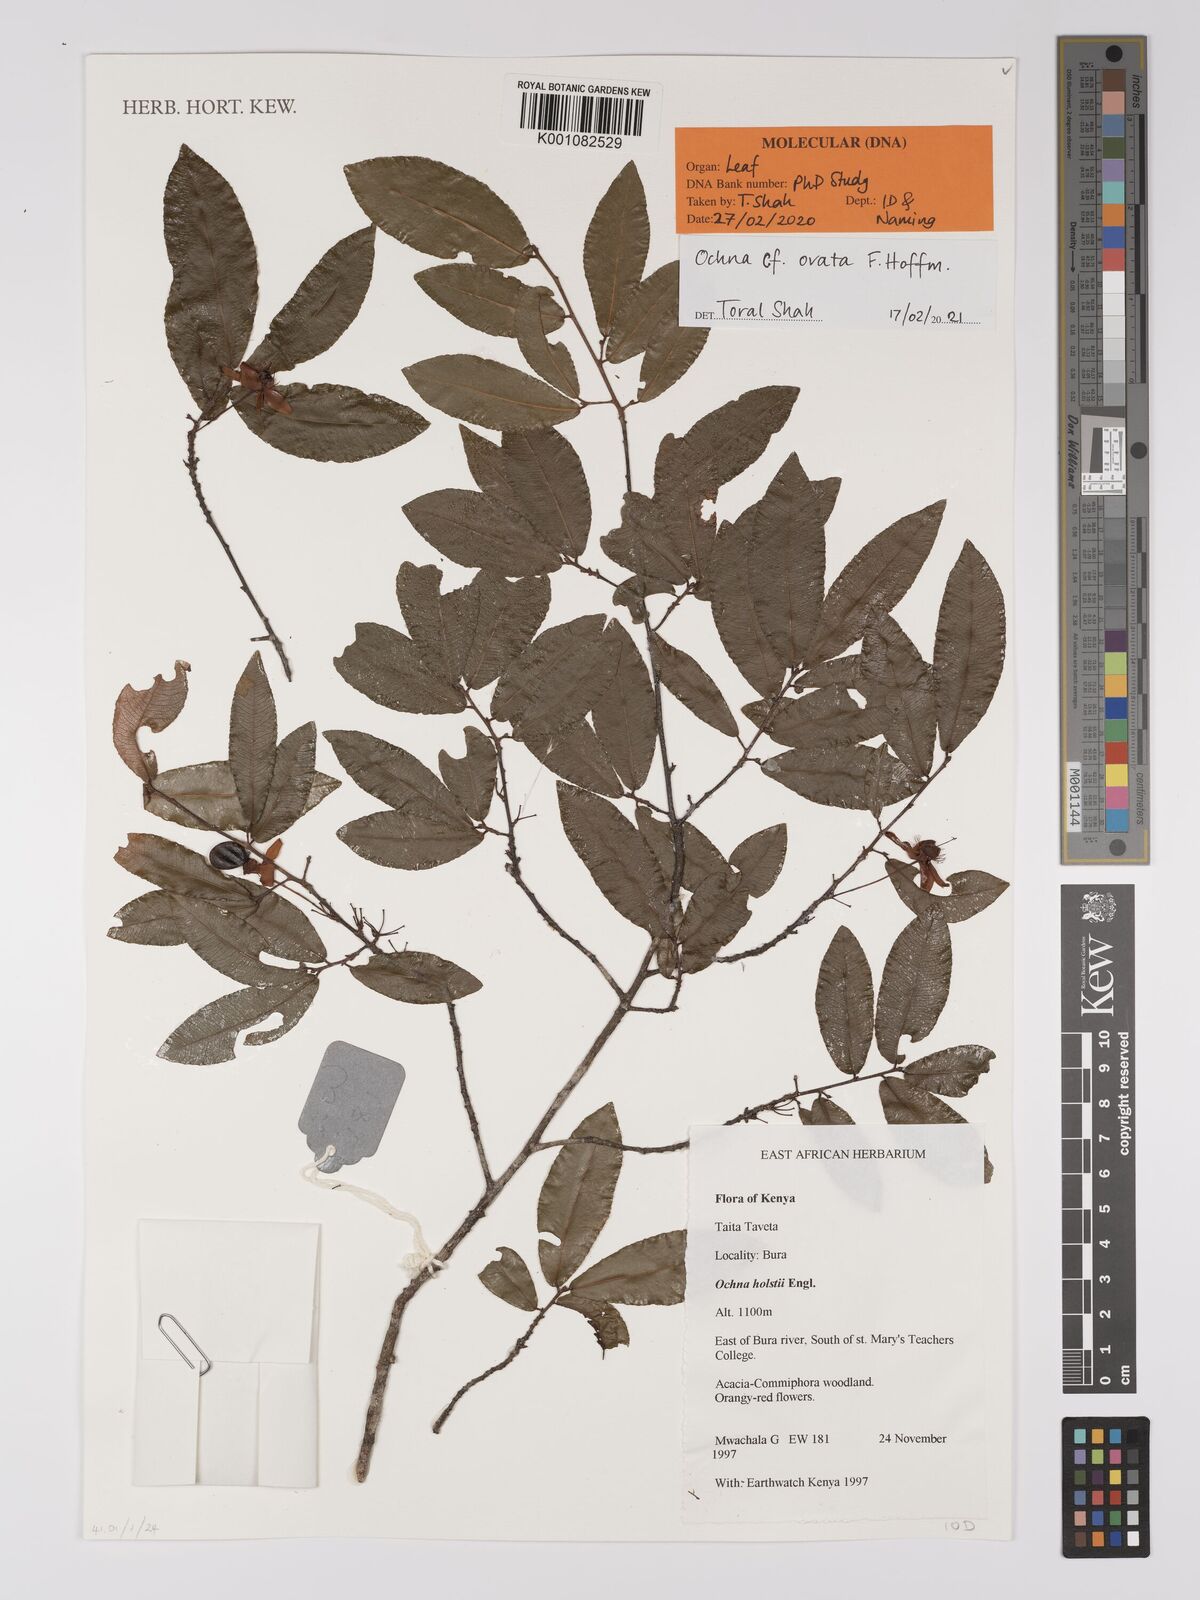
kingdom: Plantae
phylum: Tracheophyta
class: Magnoliopsida
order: Malpighiales
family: Ochnaceae
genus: Ochna
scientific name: Ochna ovata
